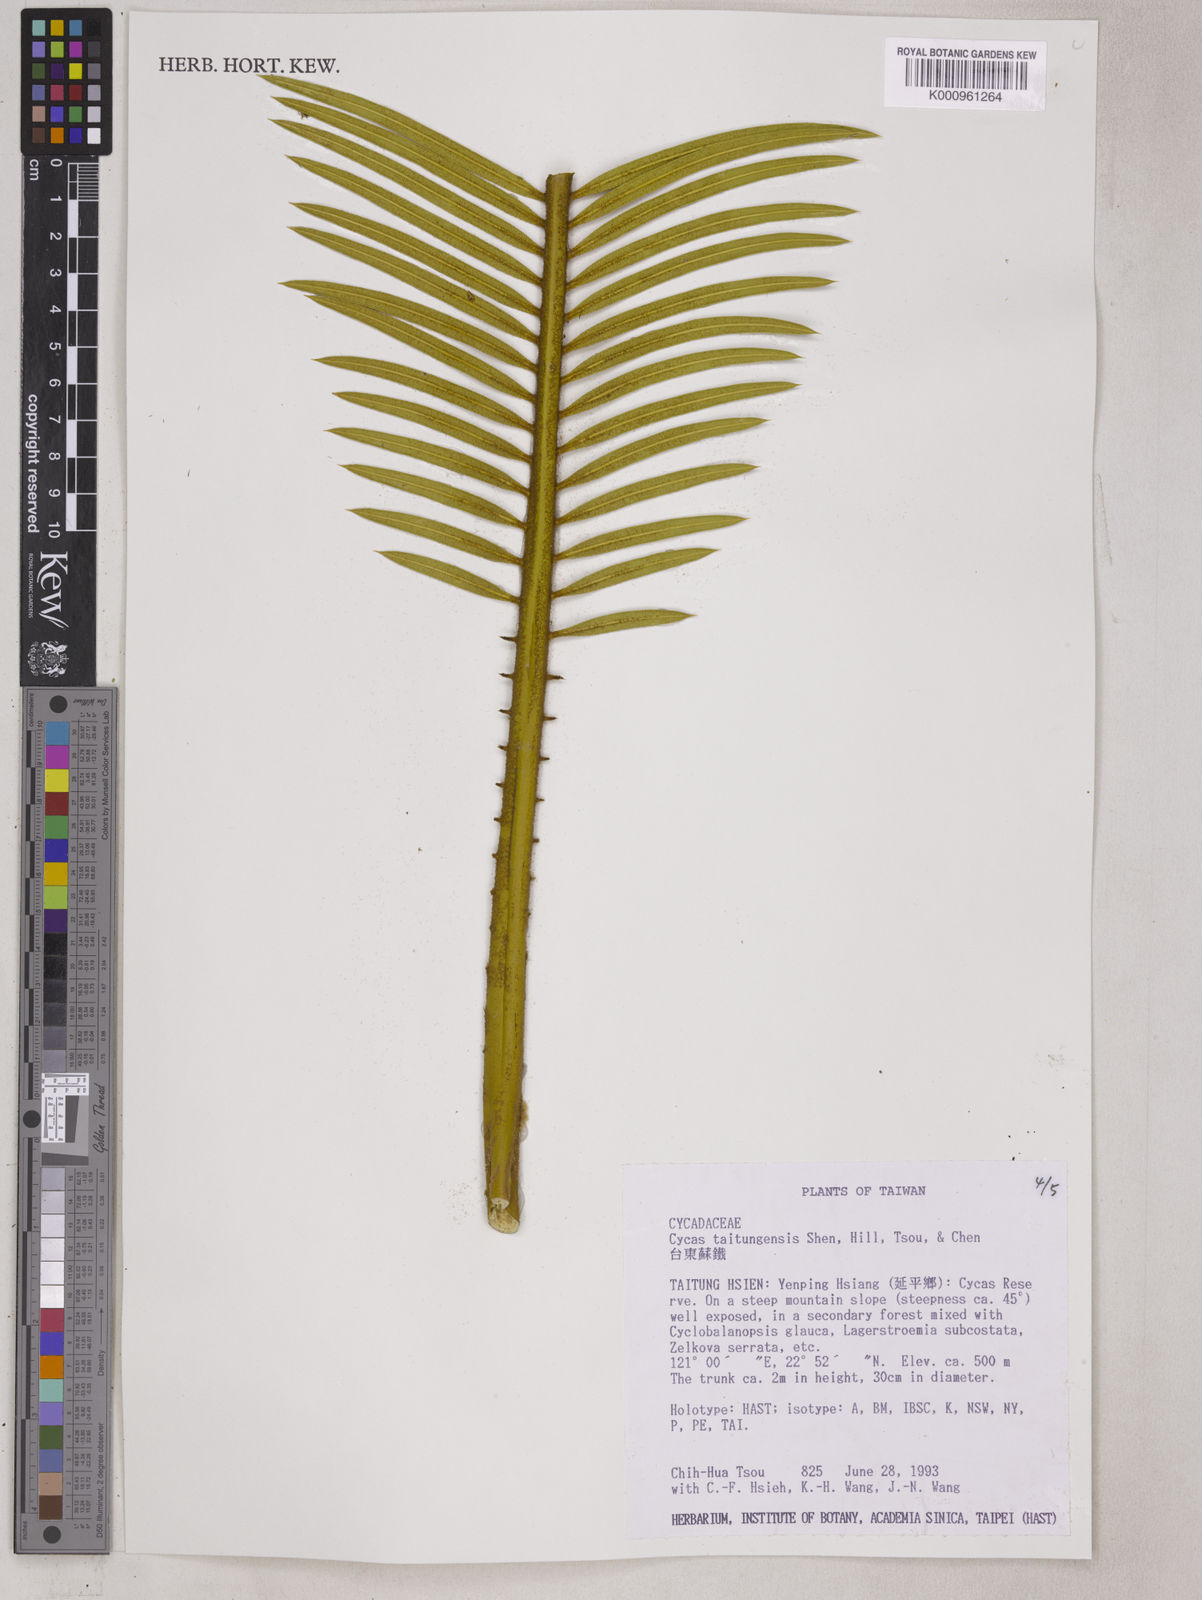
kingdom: Plantae
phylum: Tracheophyta
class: Cycadopsida
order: Cycadales
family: Cycadaceae
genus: Cycas
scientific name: Cycas
